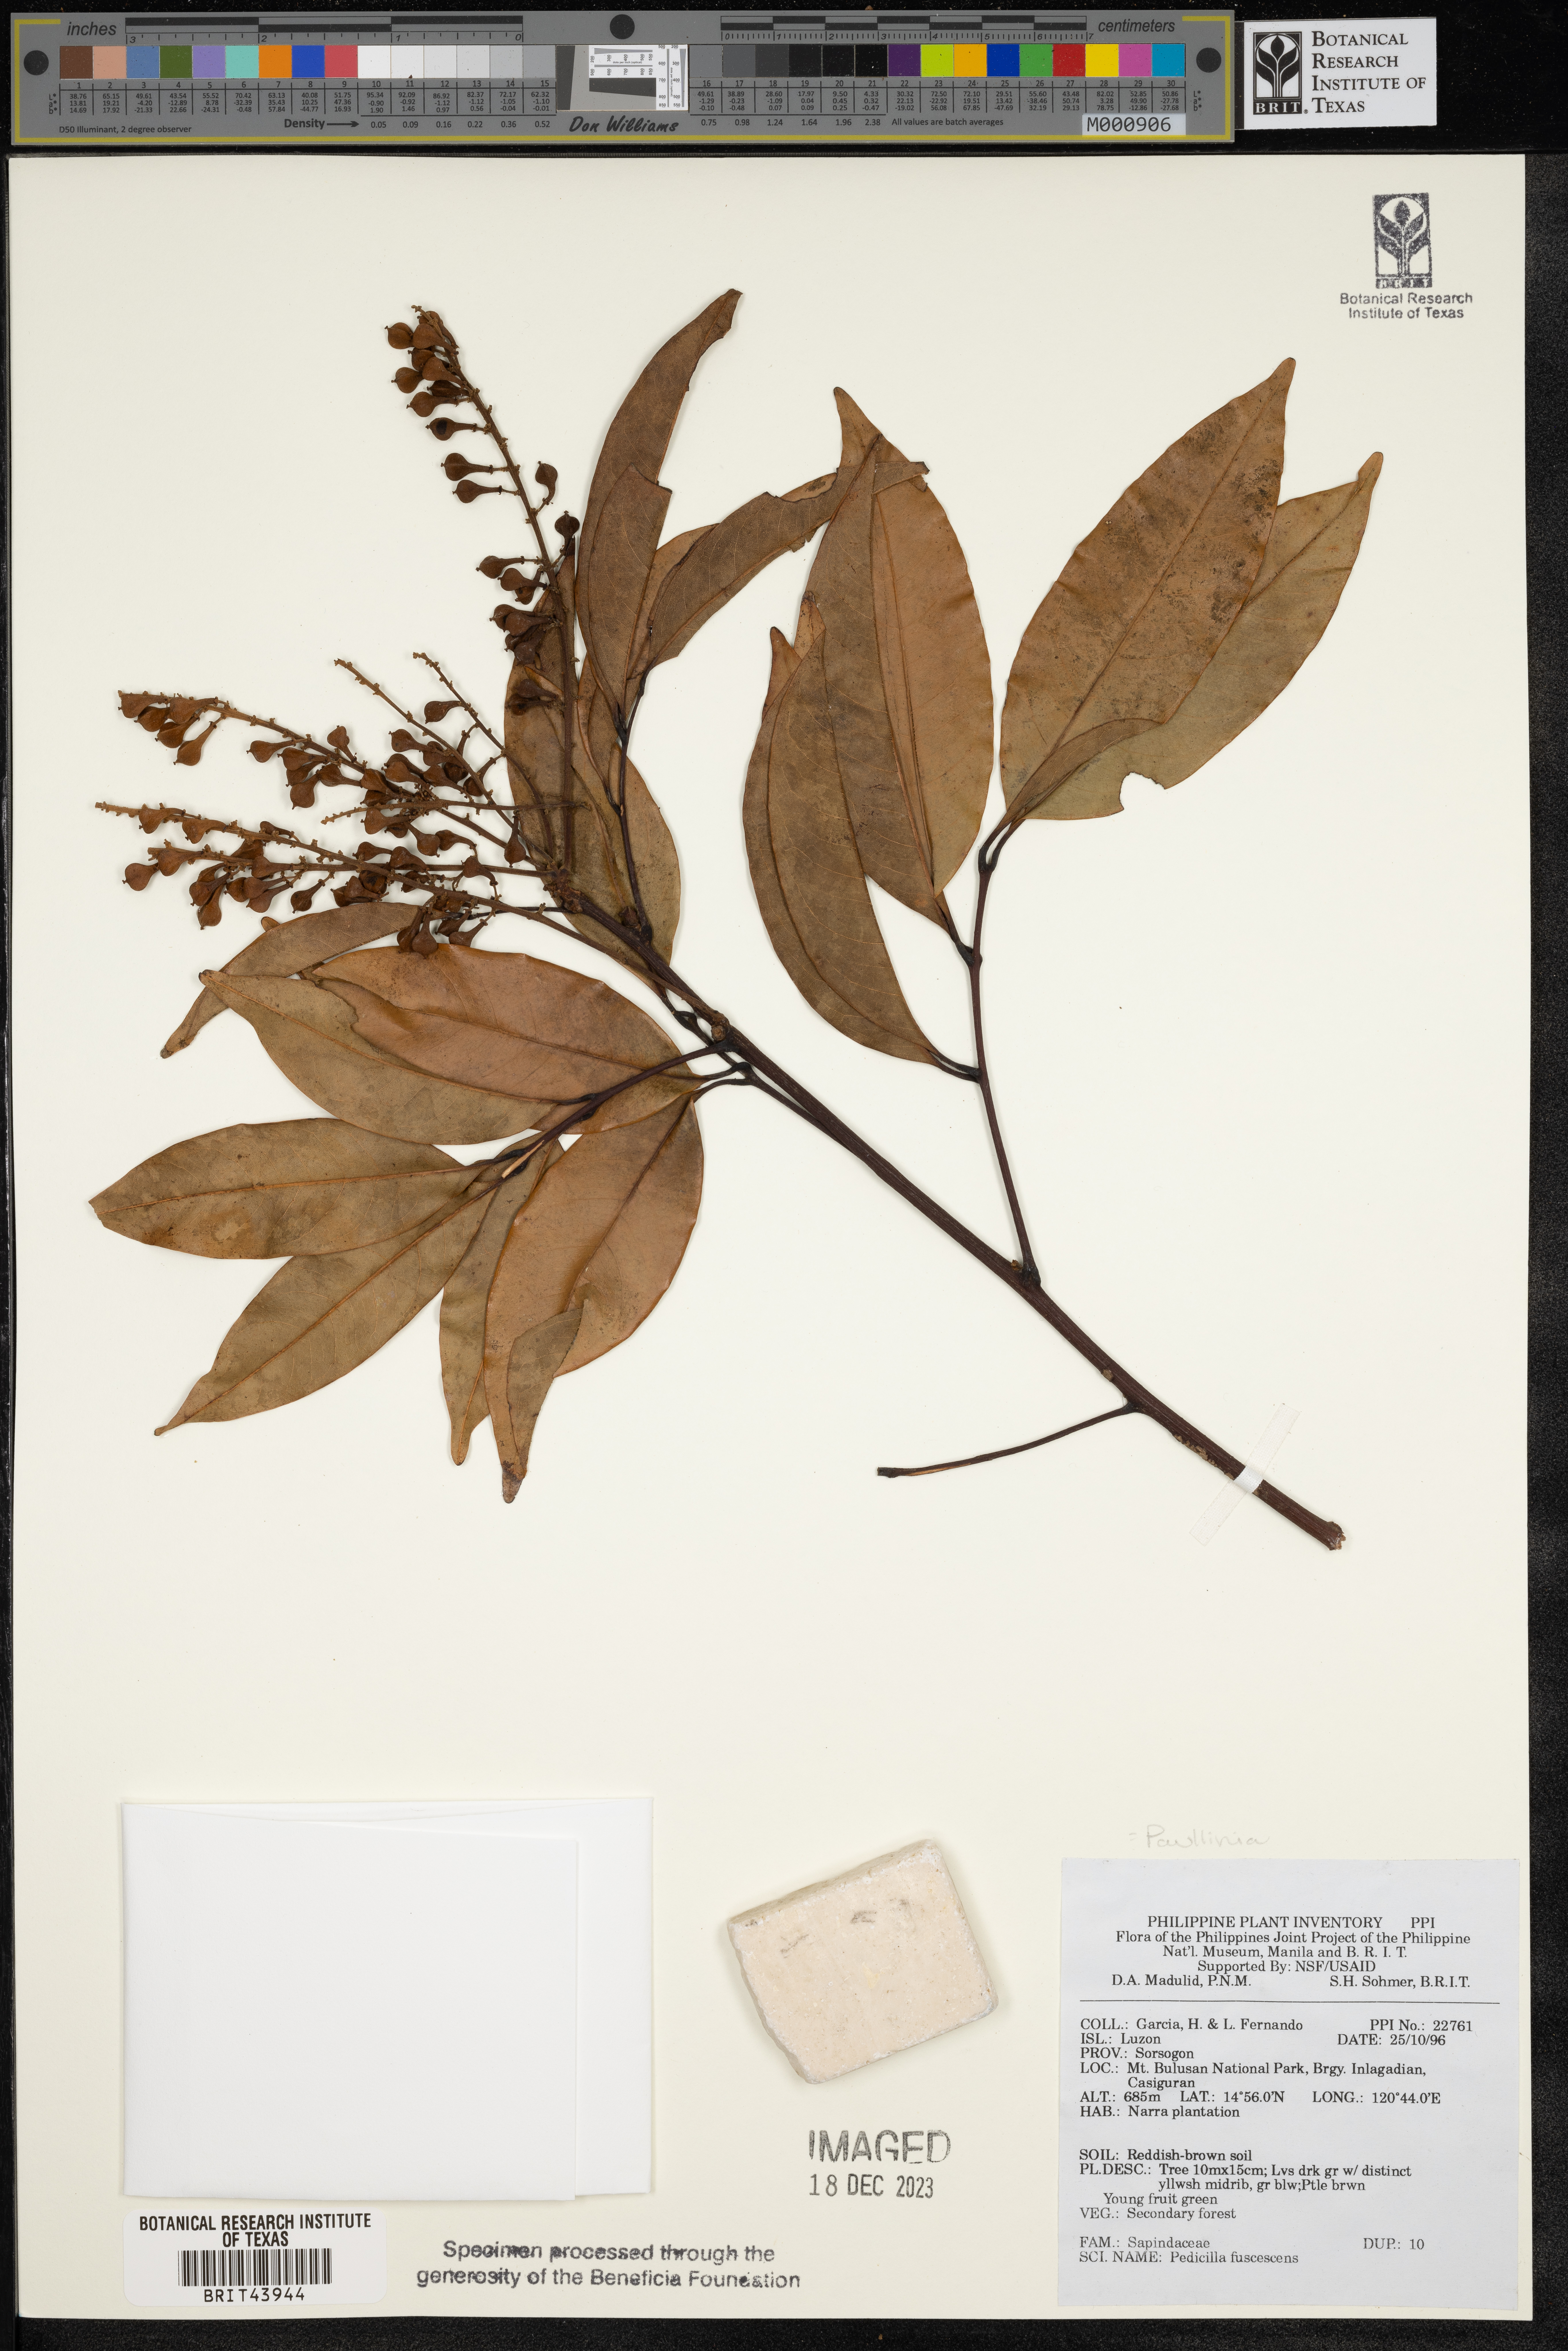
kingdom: Plantae
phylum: Tracheophyta
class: Magnoliopsida
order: Sapindales
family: Sapindaceae
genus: Paullinia
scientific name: Paullinia fuscescens
